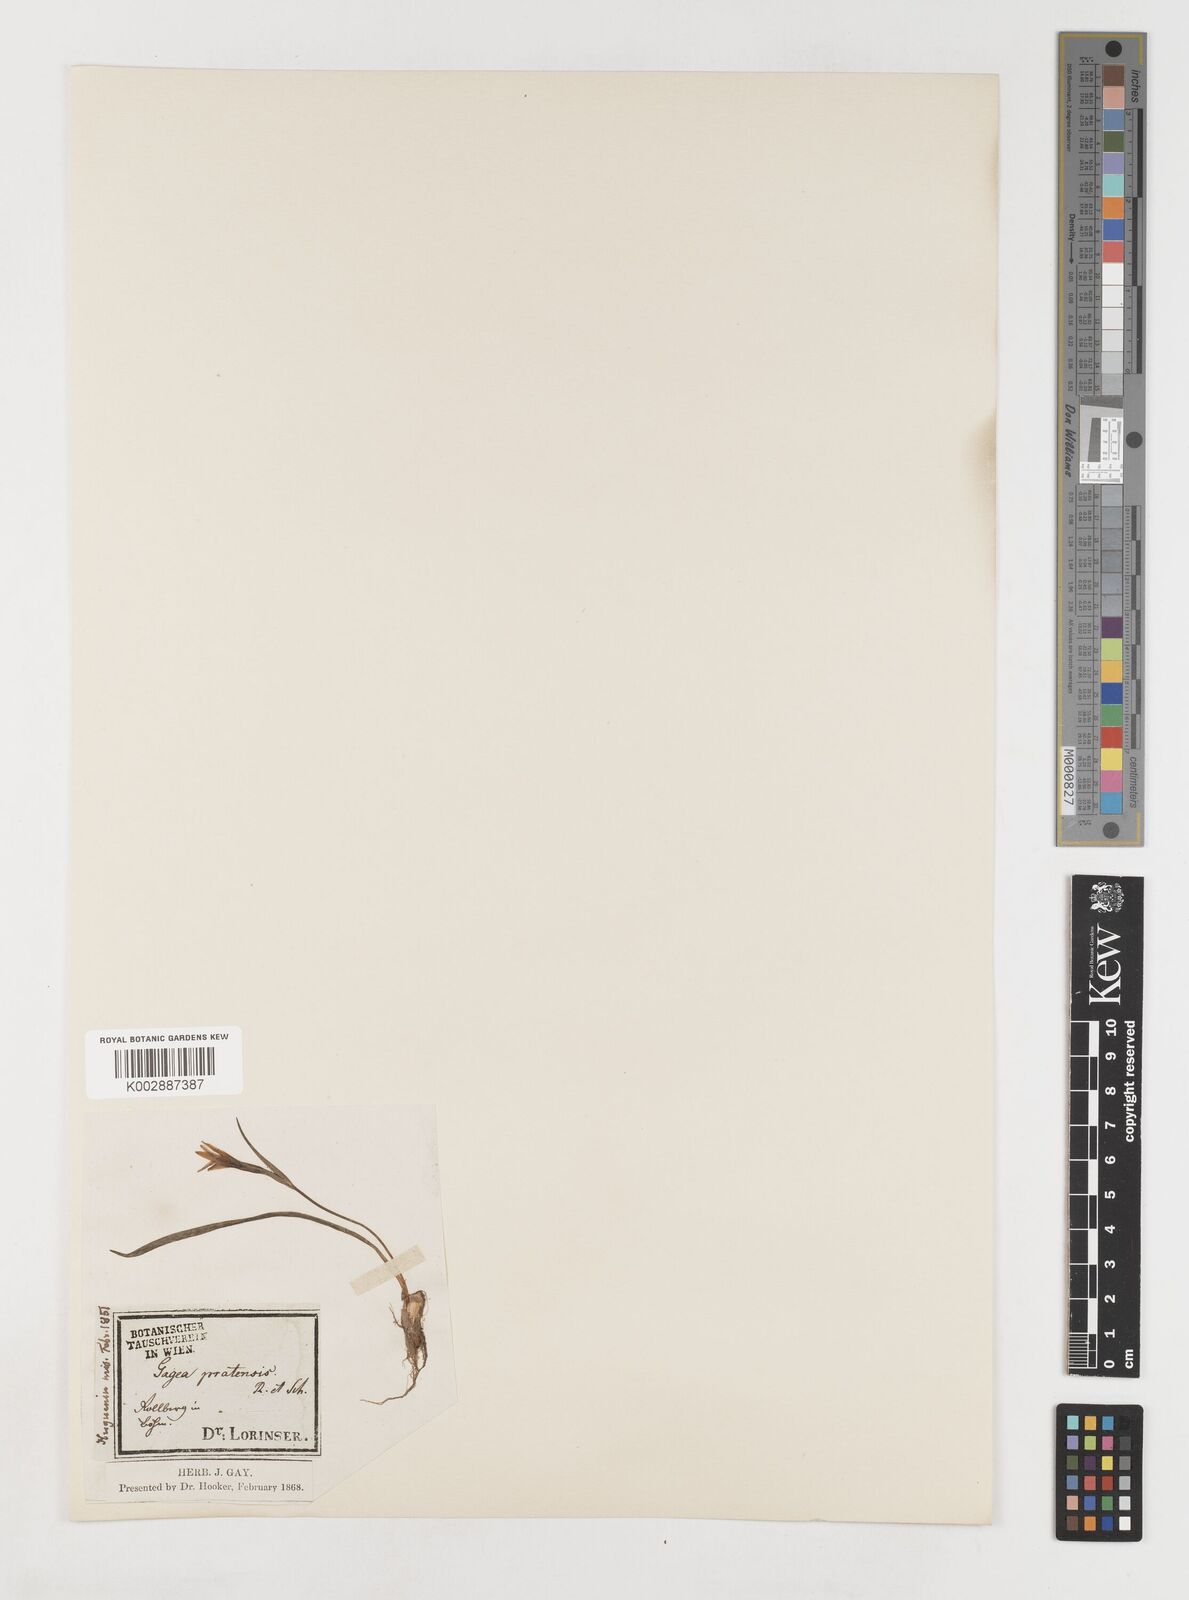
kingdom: Plantae
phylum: Tracheophyta
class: Liliopsida
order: Liliales
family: Liliaceae
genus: Gagea
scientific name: Gagea pratensis
